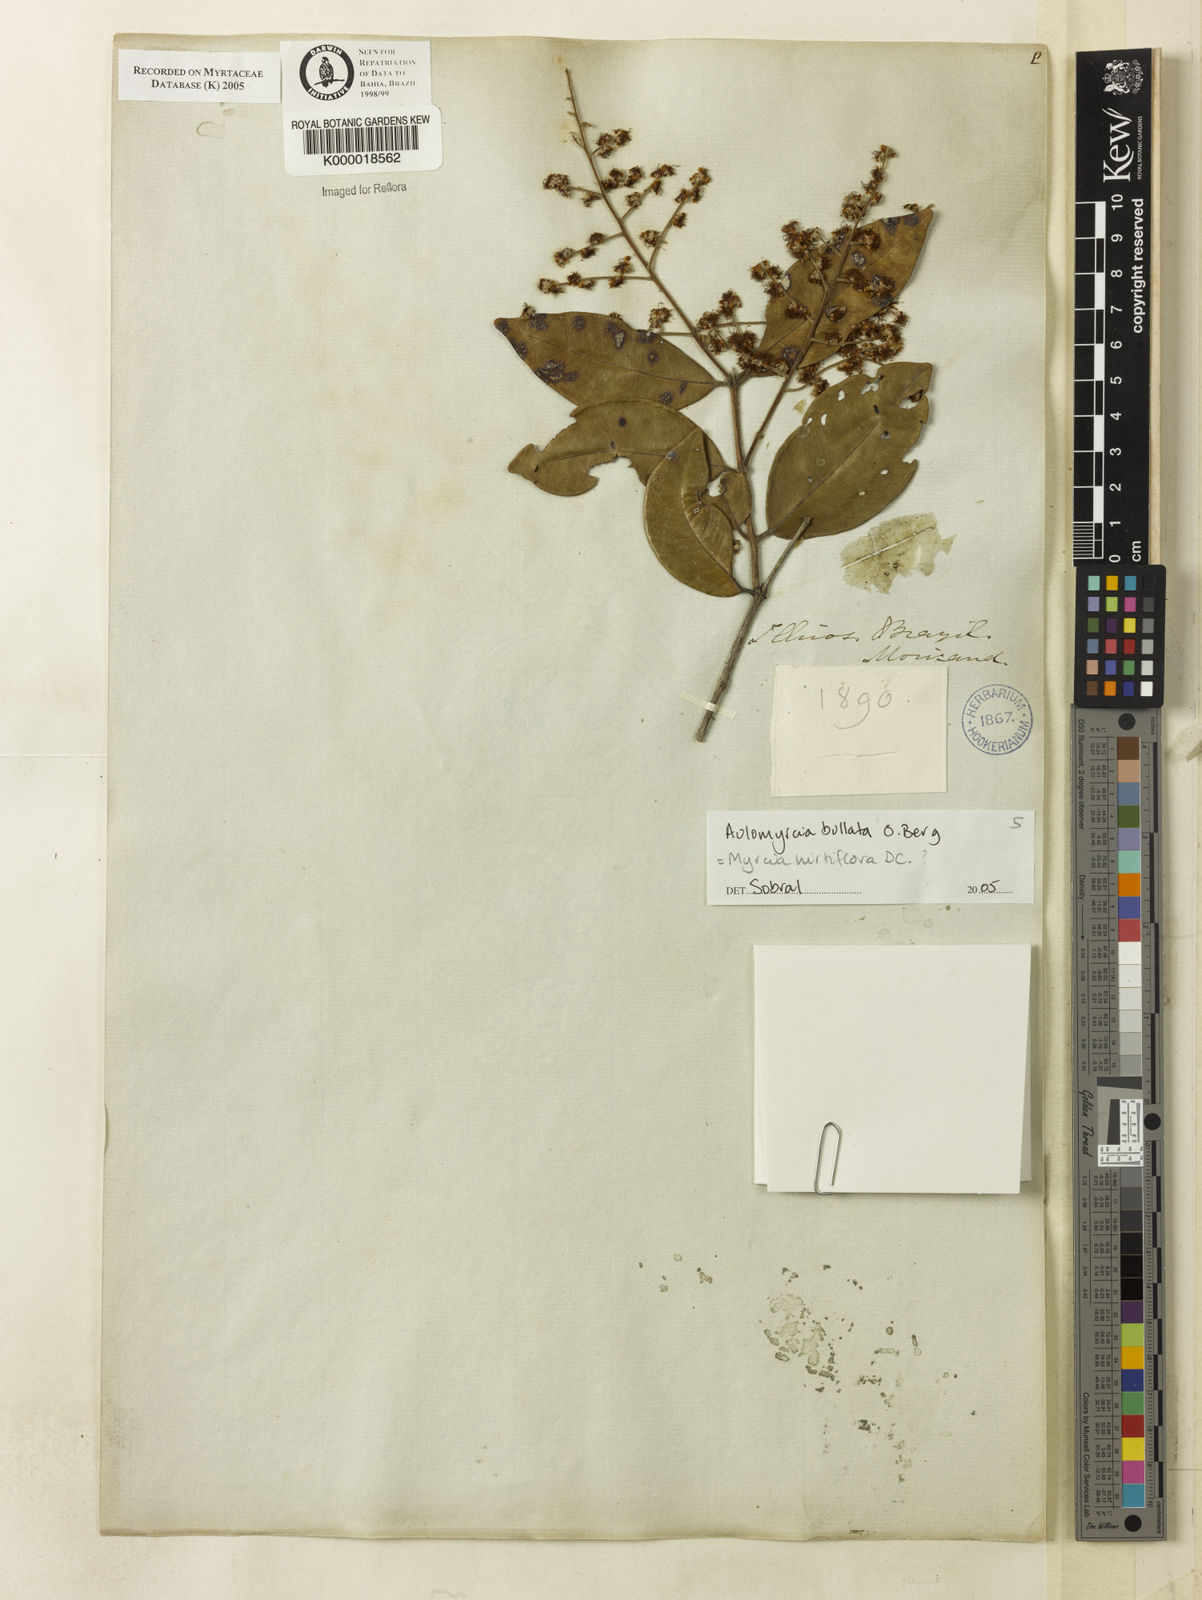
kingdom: Plantae
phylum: Tracheophyta
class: Magnoliopsida
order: Myrtales
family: Myrtaceae
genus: Myrcia
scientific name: Myrcia
